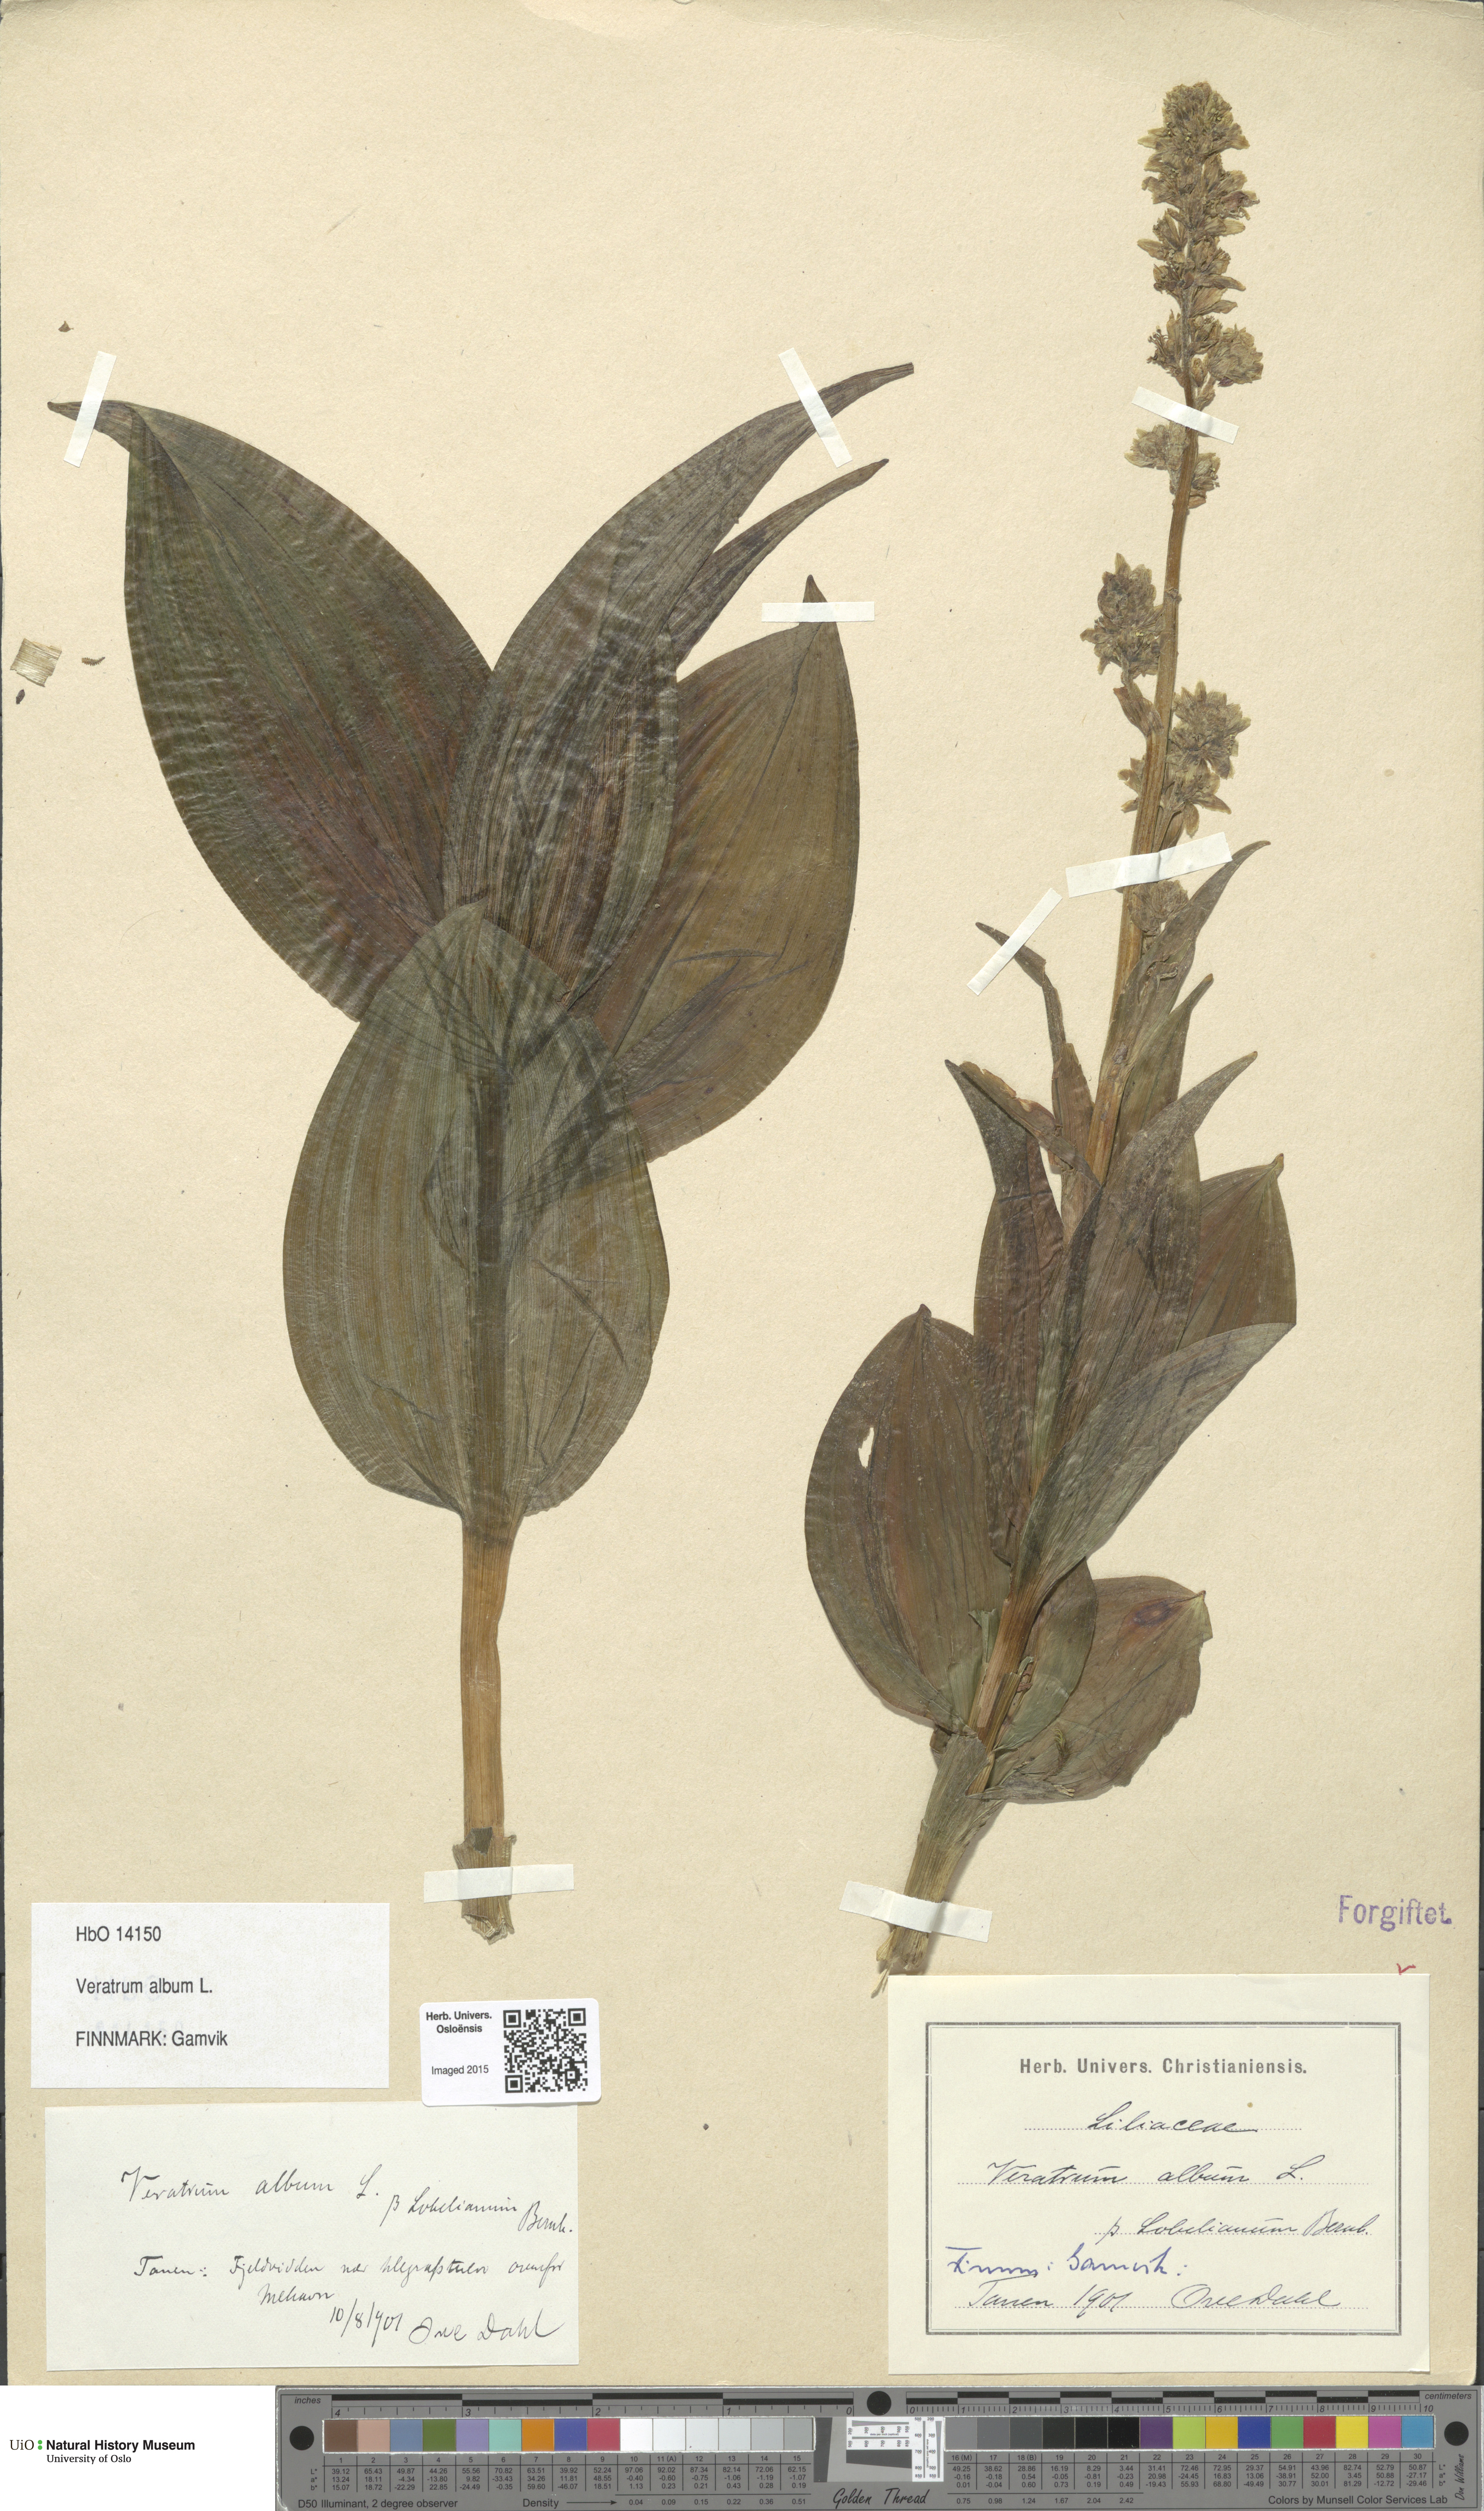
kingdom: Plantae
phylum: Tracheophyta
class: Liliopsida
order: Liliales
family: Melanthiaceae
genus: Veratrum
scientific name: Veratrum album
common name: White veratrum
